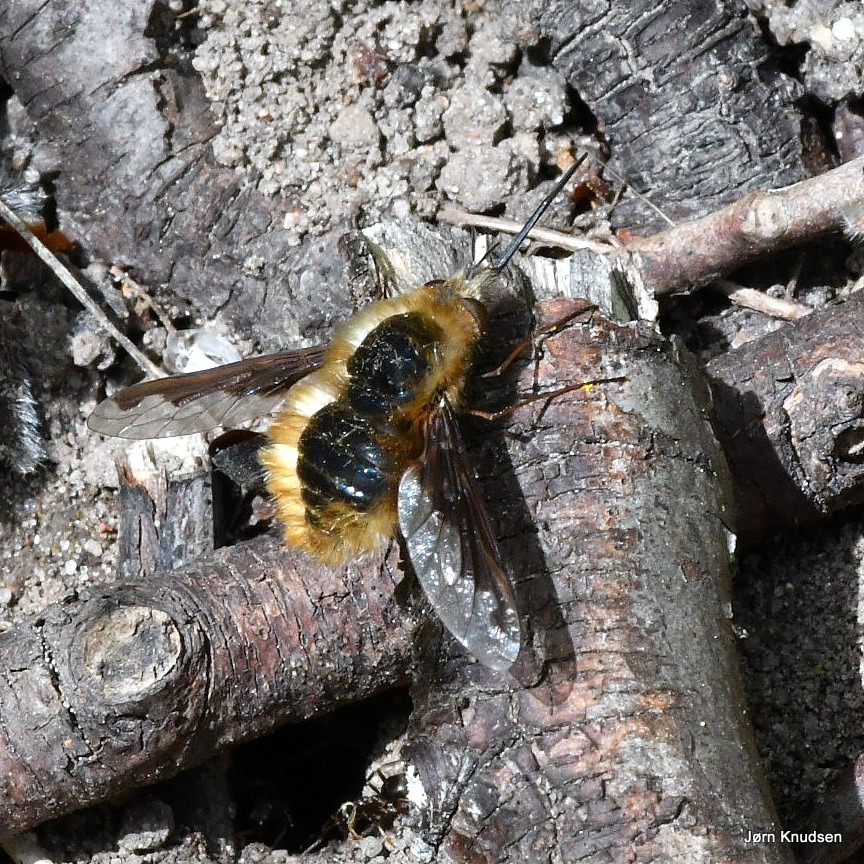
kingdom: Animalia
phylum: Arthropoda
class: Insecta
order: Diptera
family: Bombyliidae
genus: Bombylius
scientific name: Bombylius major
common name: Stor humleflue
